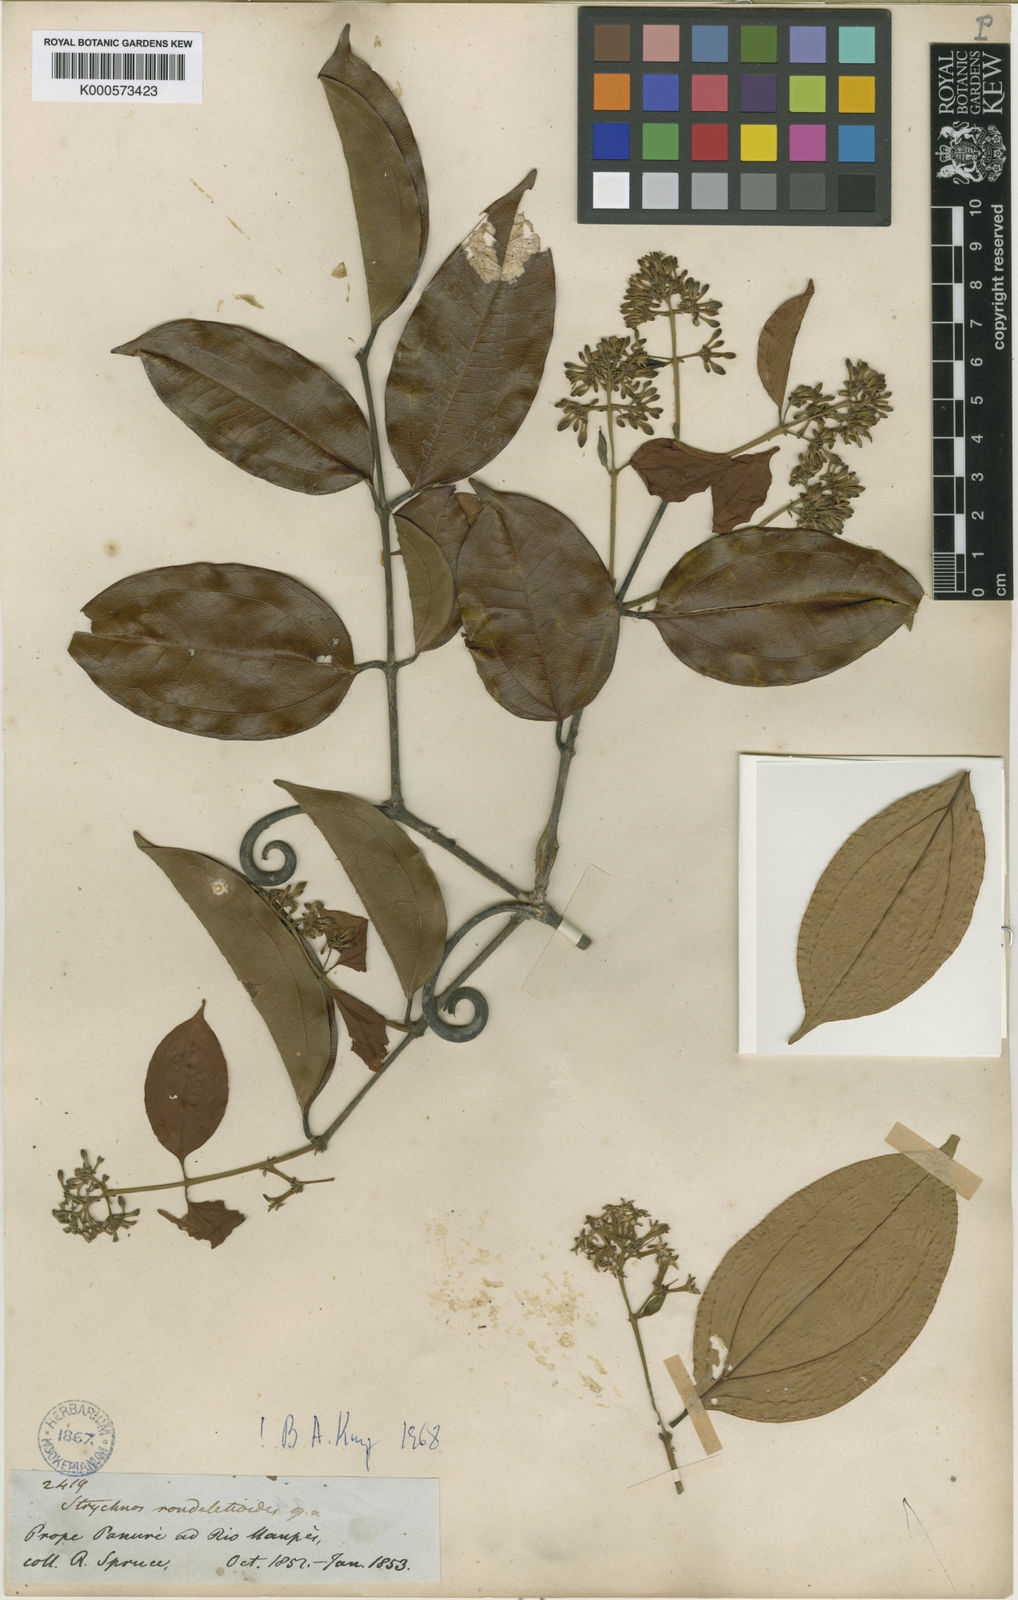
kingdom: Plantae
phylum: Tracheophyta
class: Magnoliopsida
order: Gentianales
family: Loganiaceae
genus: Strychnos
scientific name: Strychnos rondeletioides
